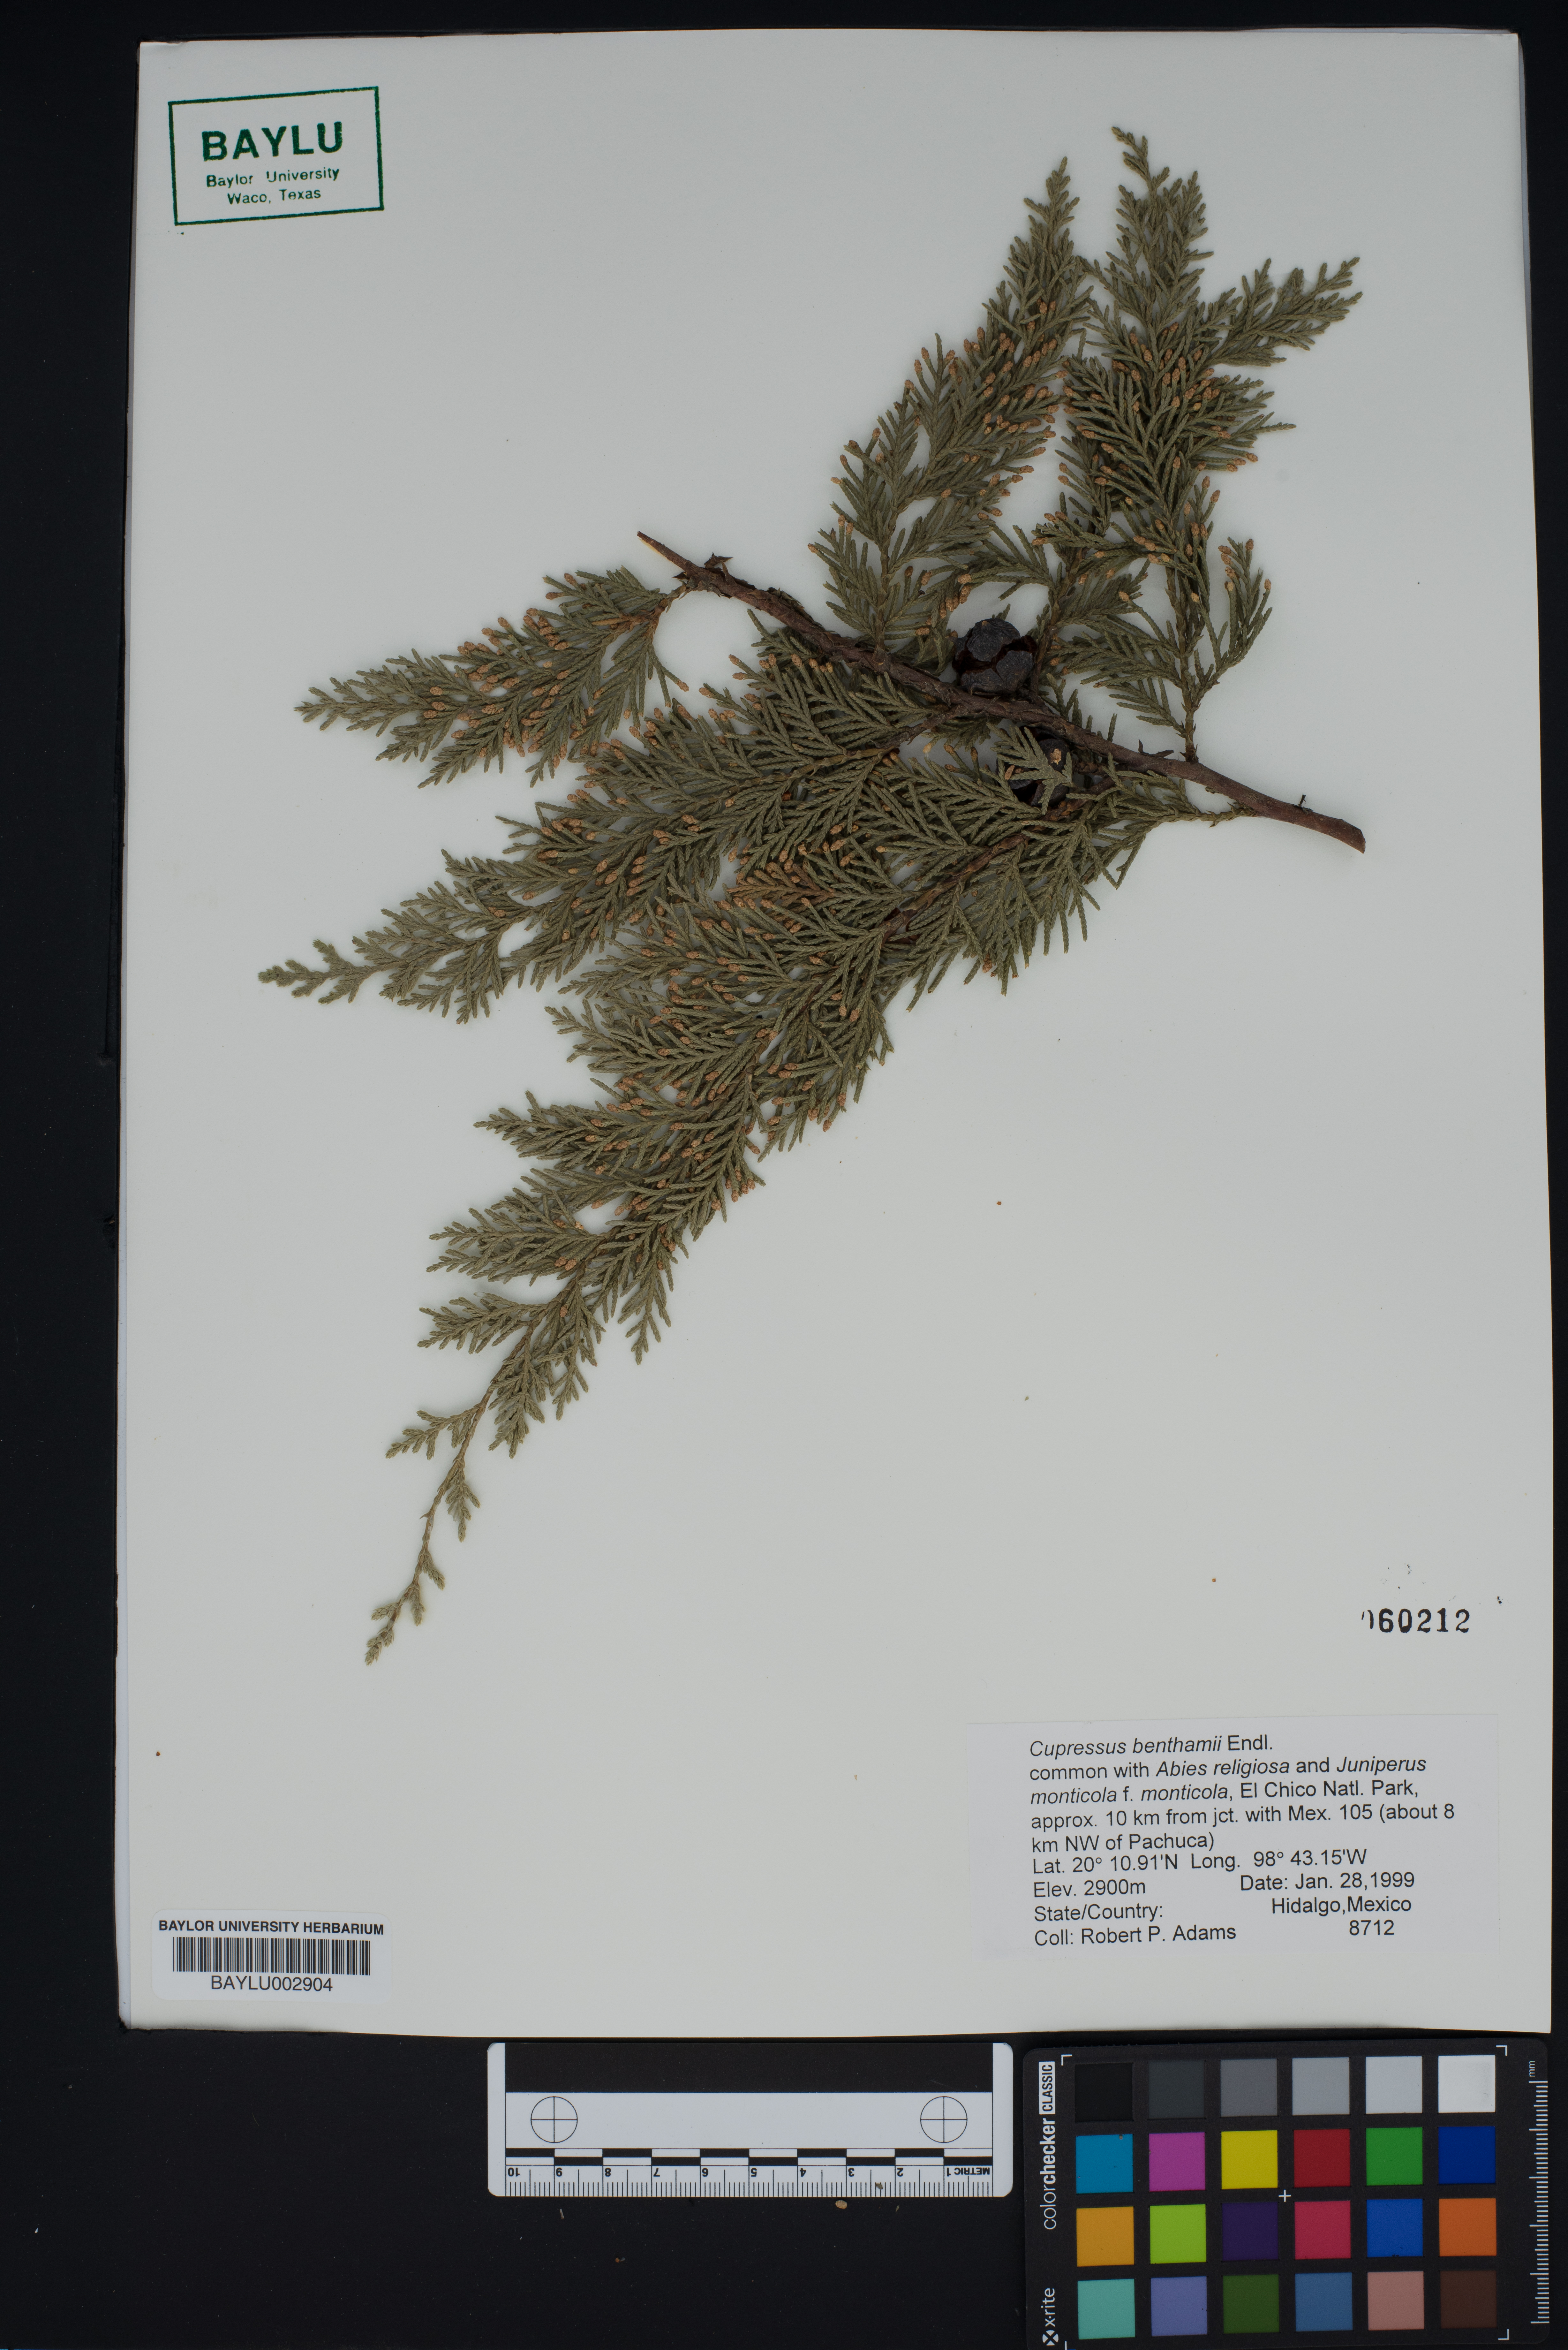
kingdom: Plantae
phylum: Tracheophyta
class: Pinopsida
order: Pinales
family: Cupressaceae
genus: Cupressus
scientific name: Cupressus lusitanica
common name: Mexican cypress
